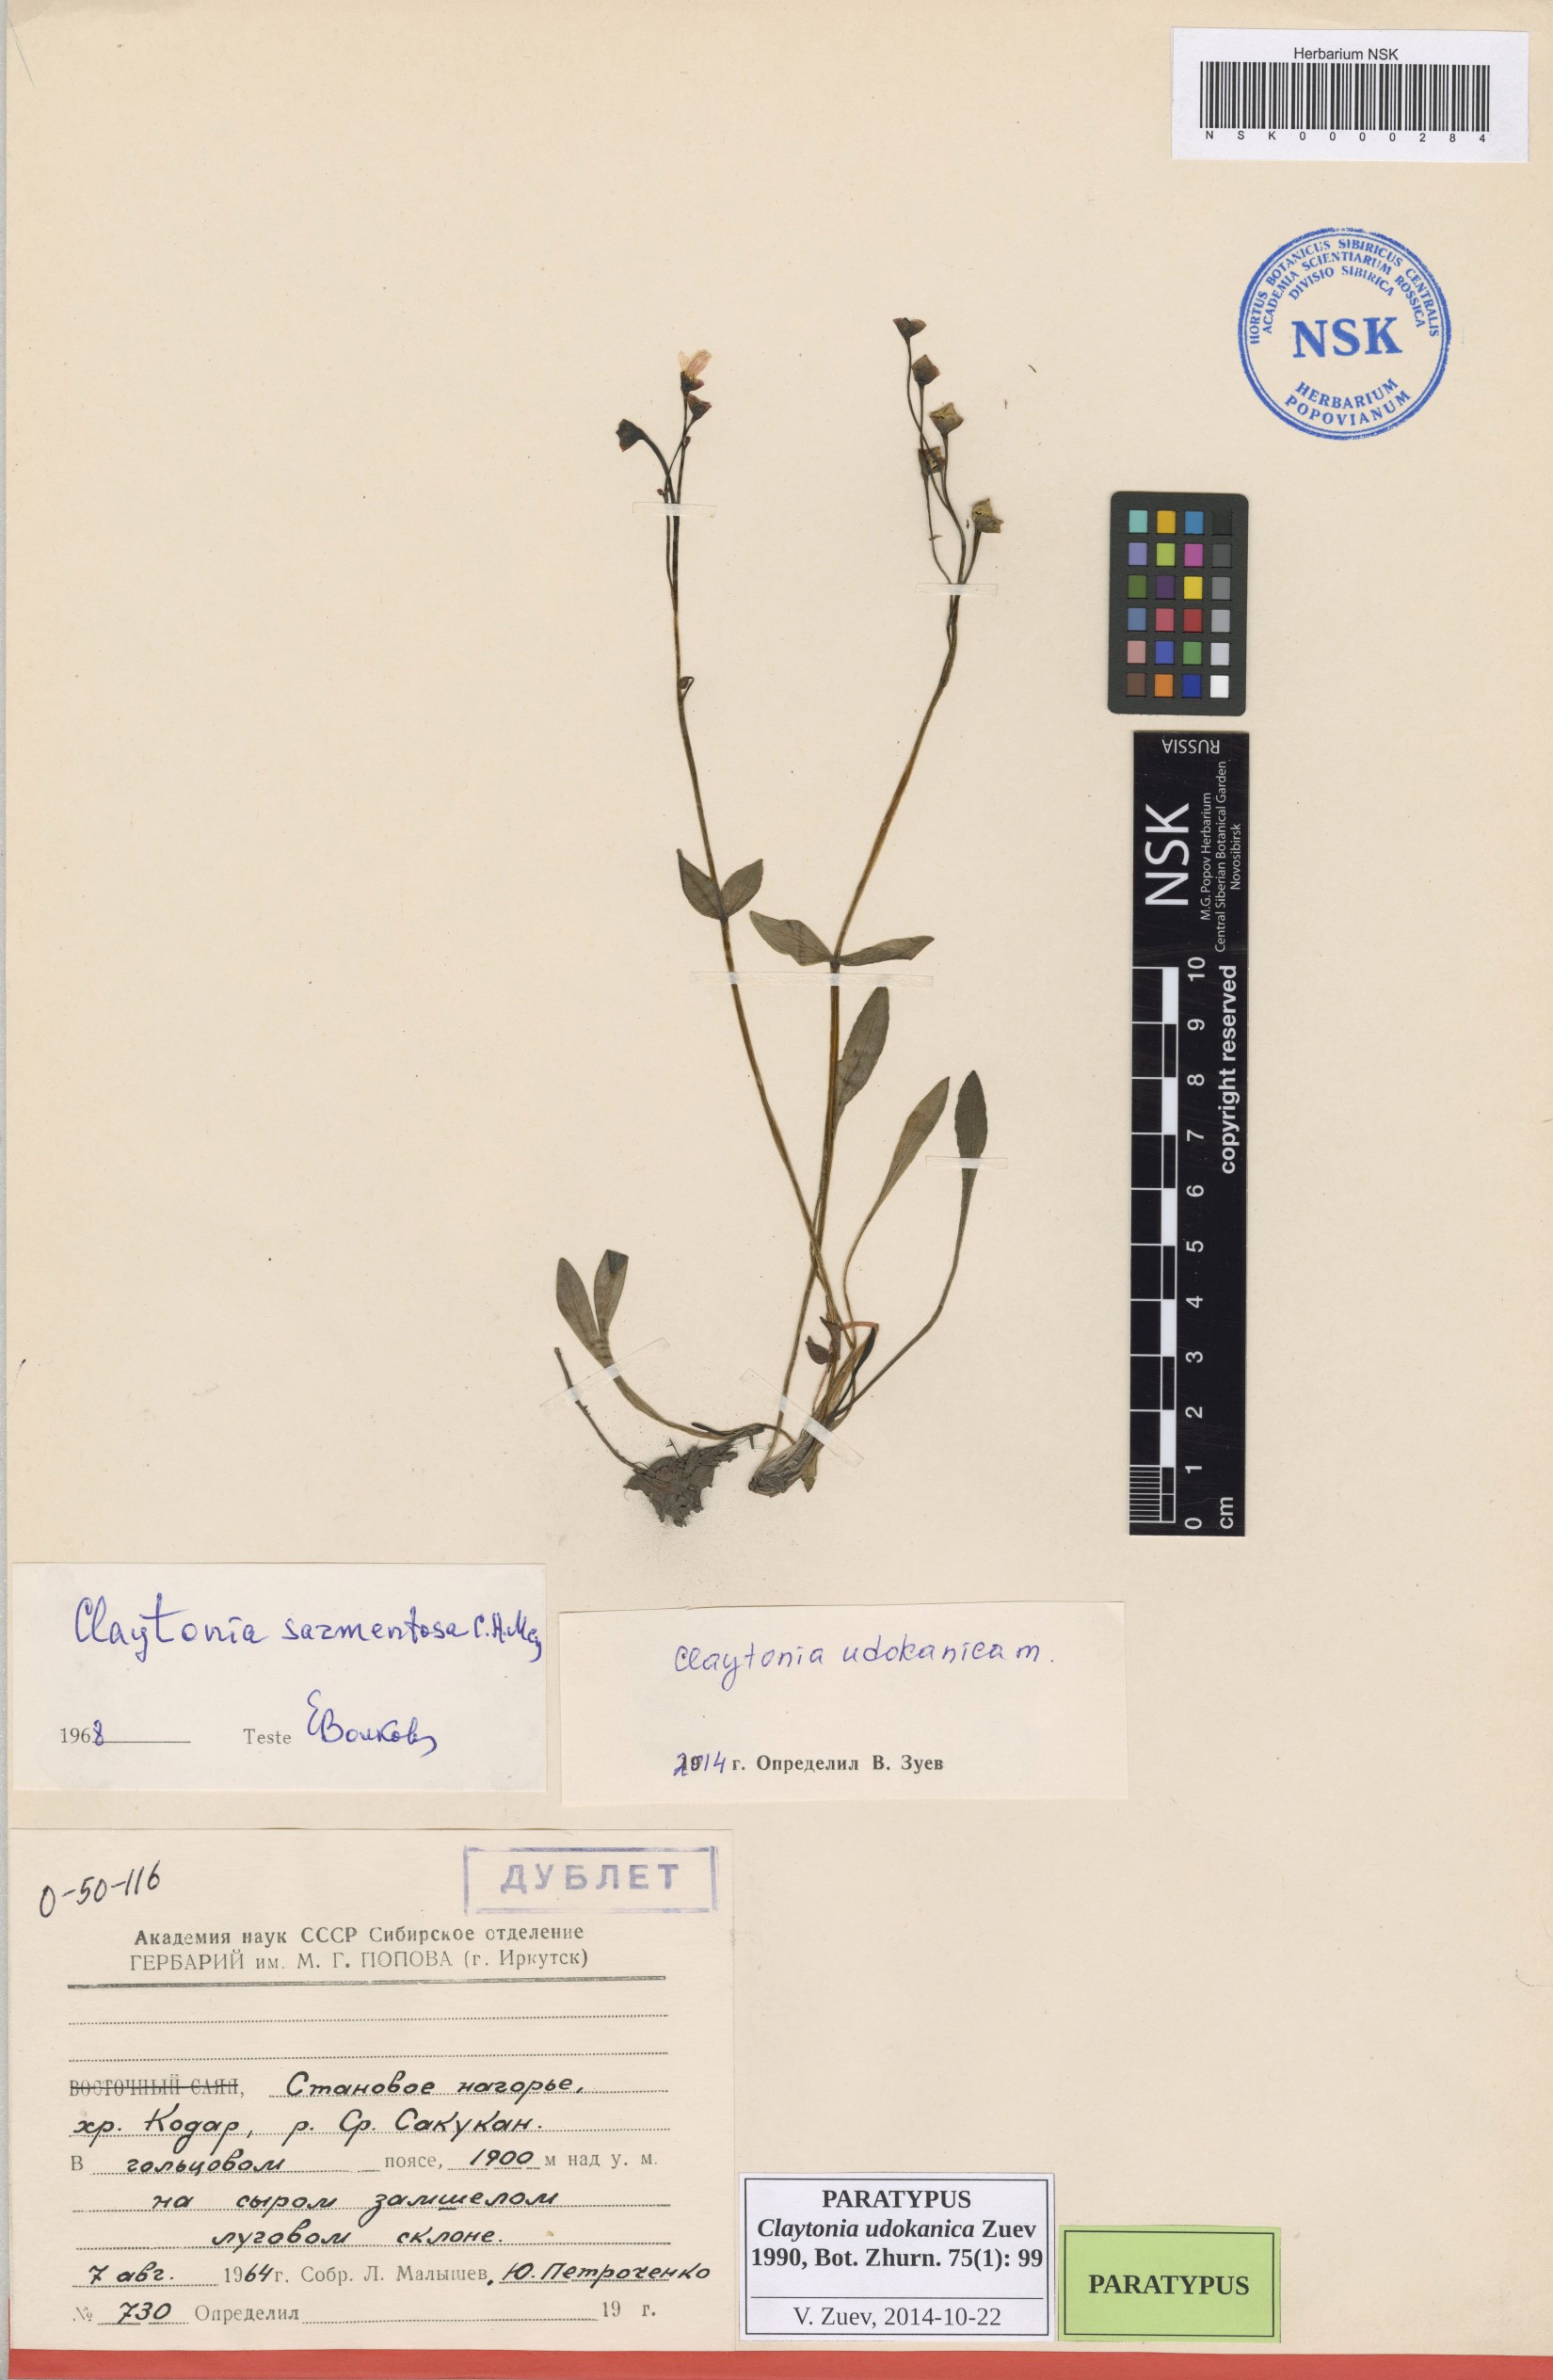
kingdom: Plantae
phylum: Tracheophyta
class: Magnoliopsida
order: Caryophyllales
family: Montiaceae
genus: Claytonia
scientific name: Claytonia udokanica
